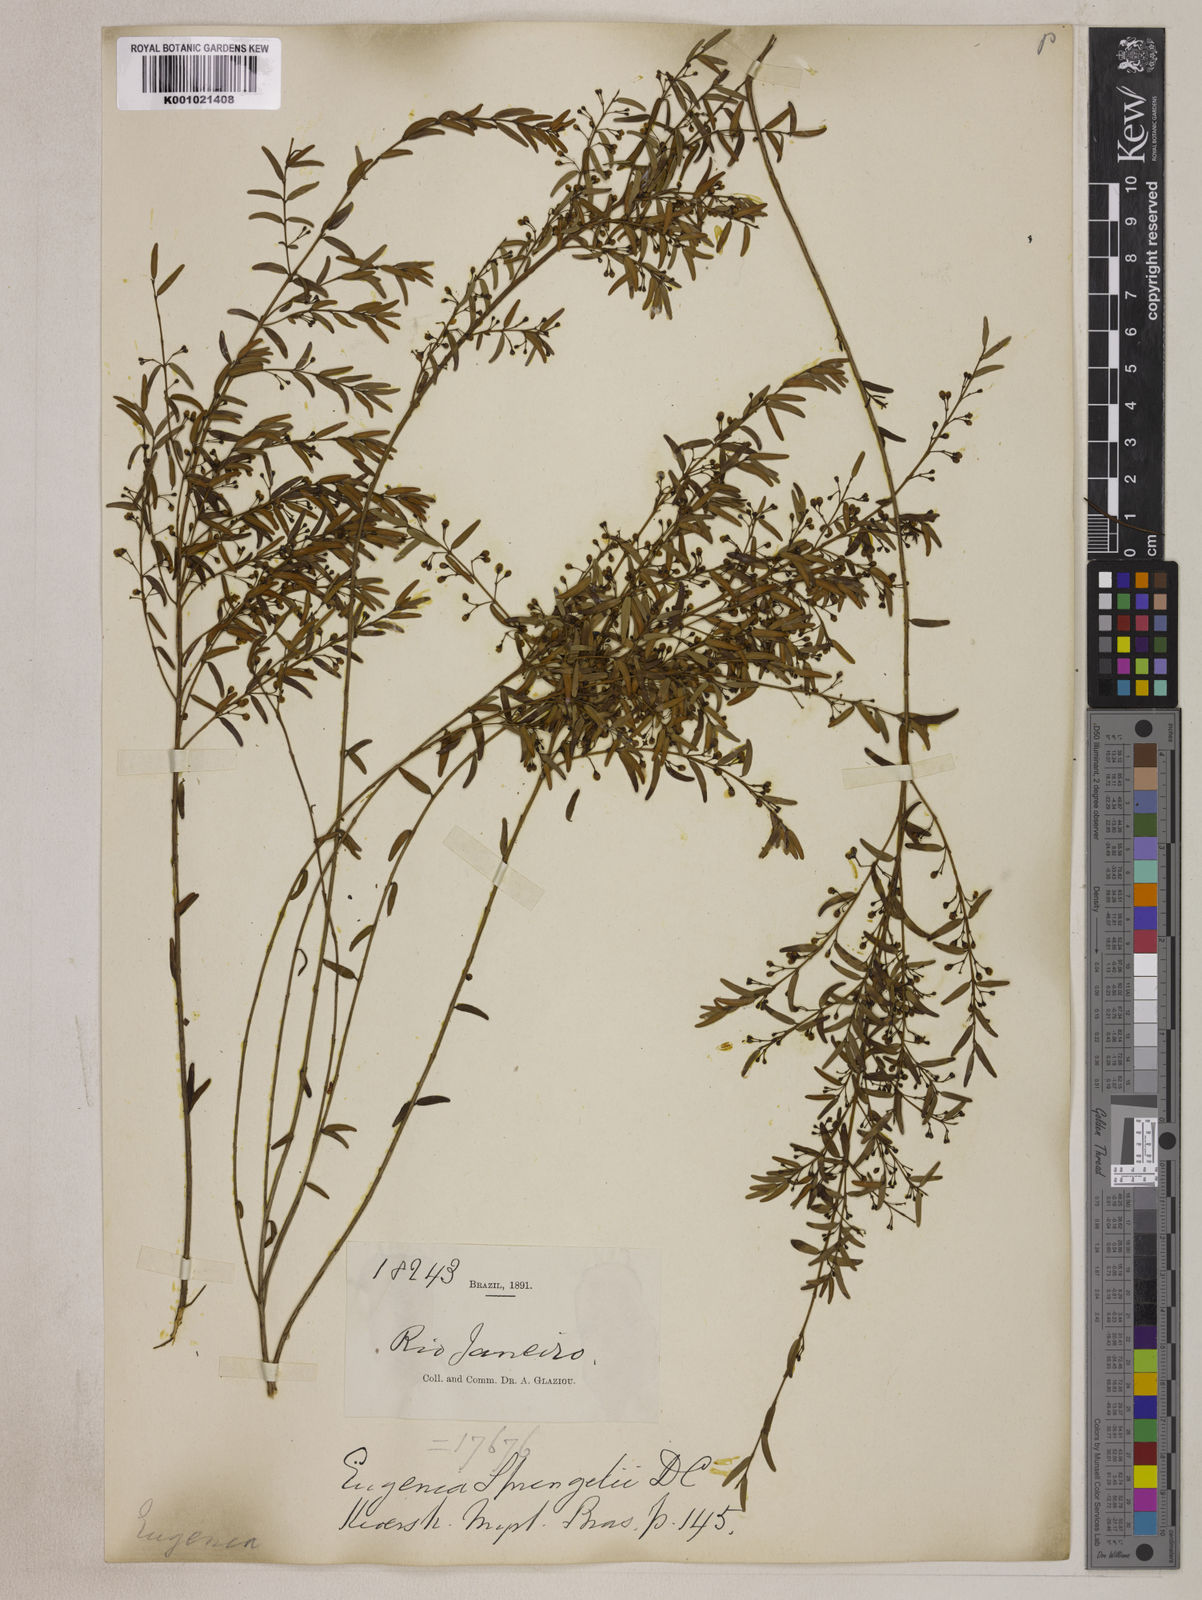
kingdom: Plantae
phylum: Tracheophyta
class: Magnoliopsida
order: Myrtales
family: Myrtaceae
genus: Eugenia
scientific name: Eugenia sprengelii
